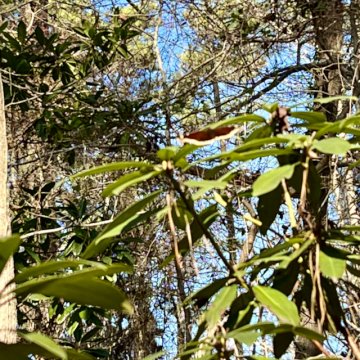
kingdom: Animalia
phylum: Arthropoda
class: Insecta
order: Lepidoptera
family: Nymphalidae
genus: Nymphalis
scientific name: Nymphalis antiopa
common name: Mourning Cloak
